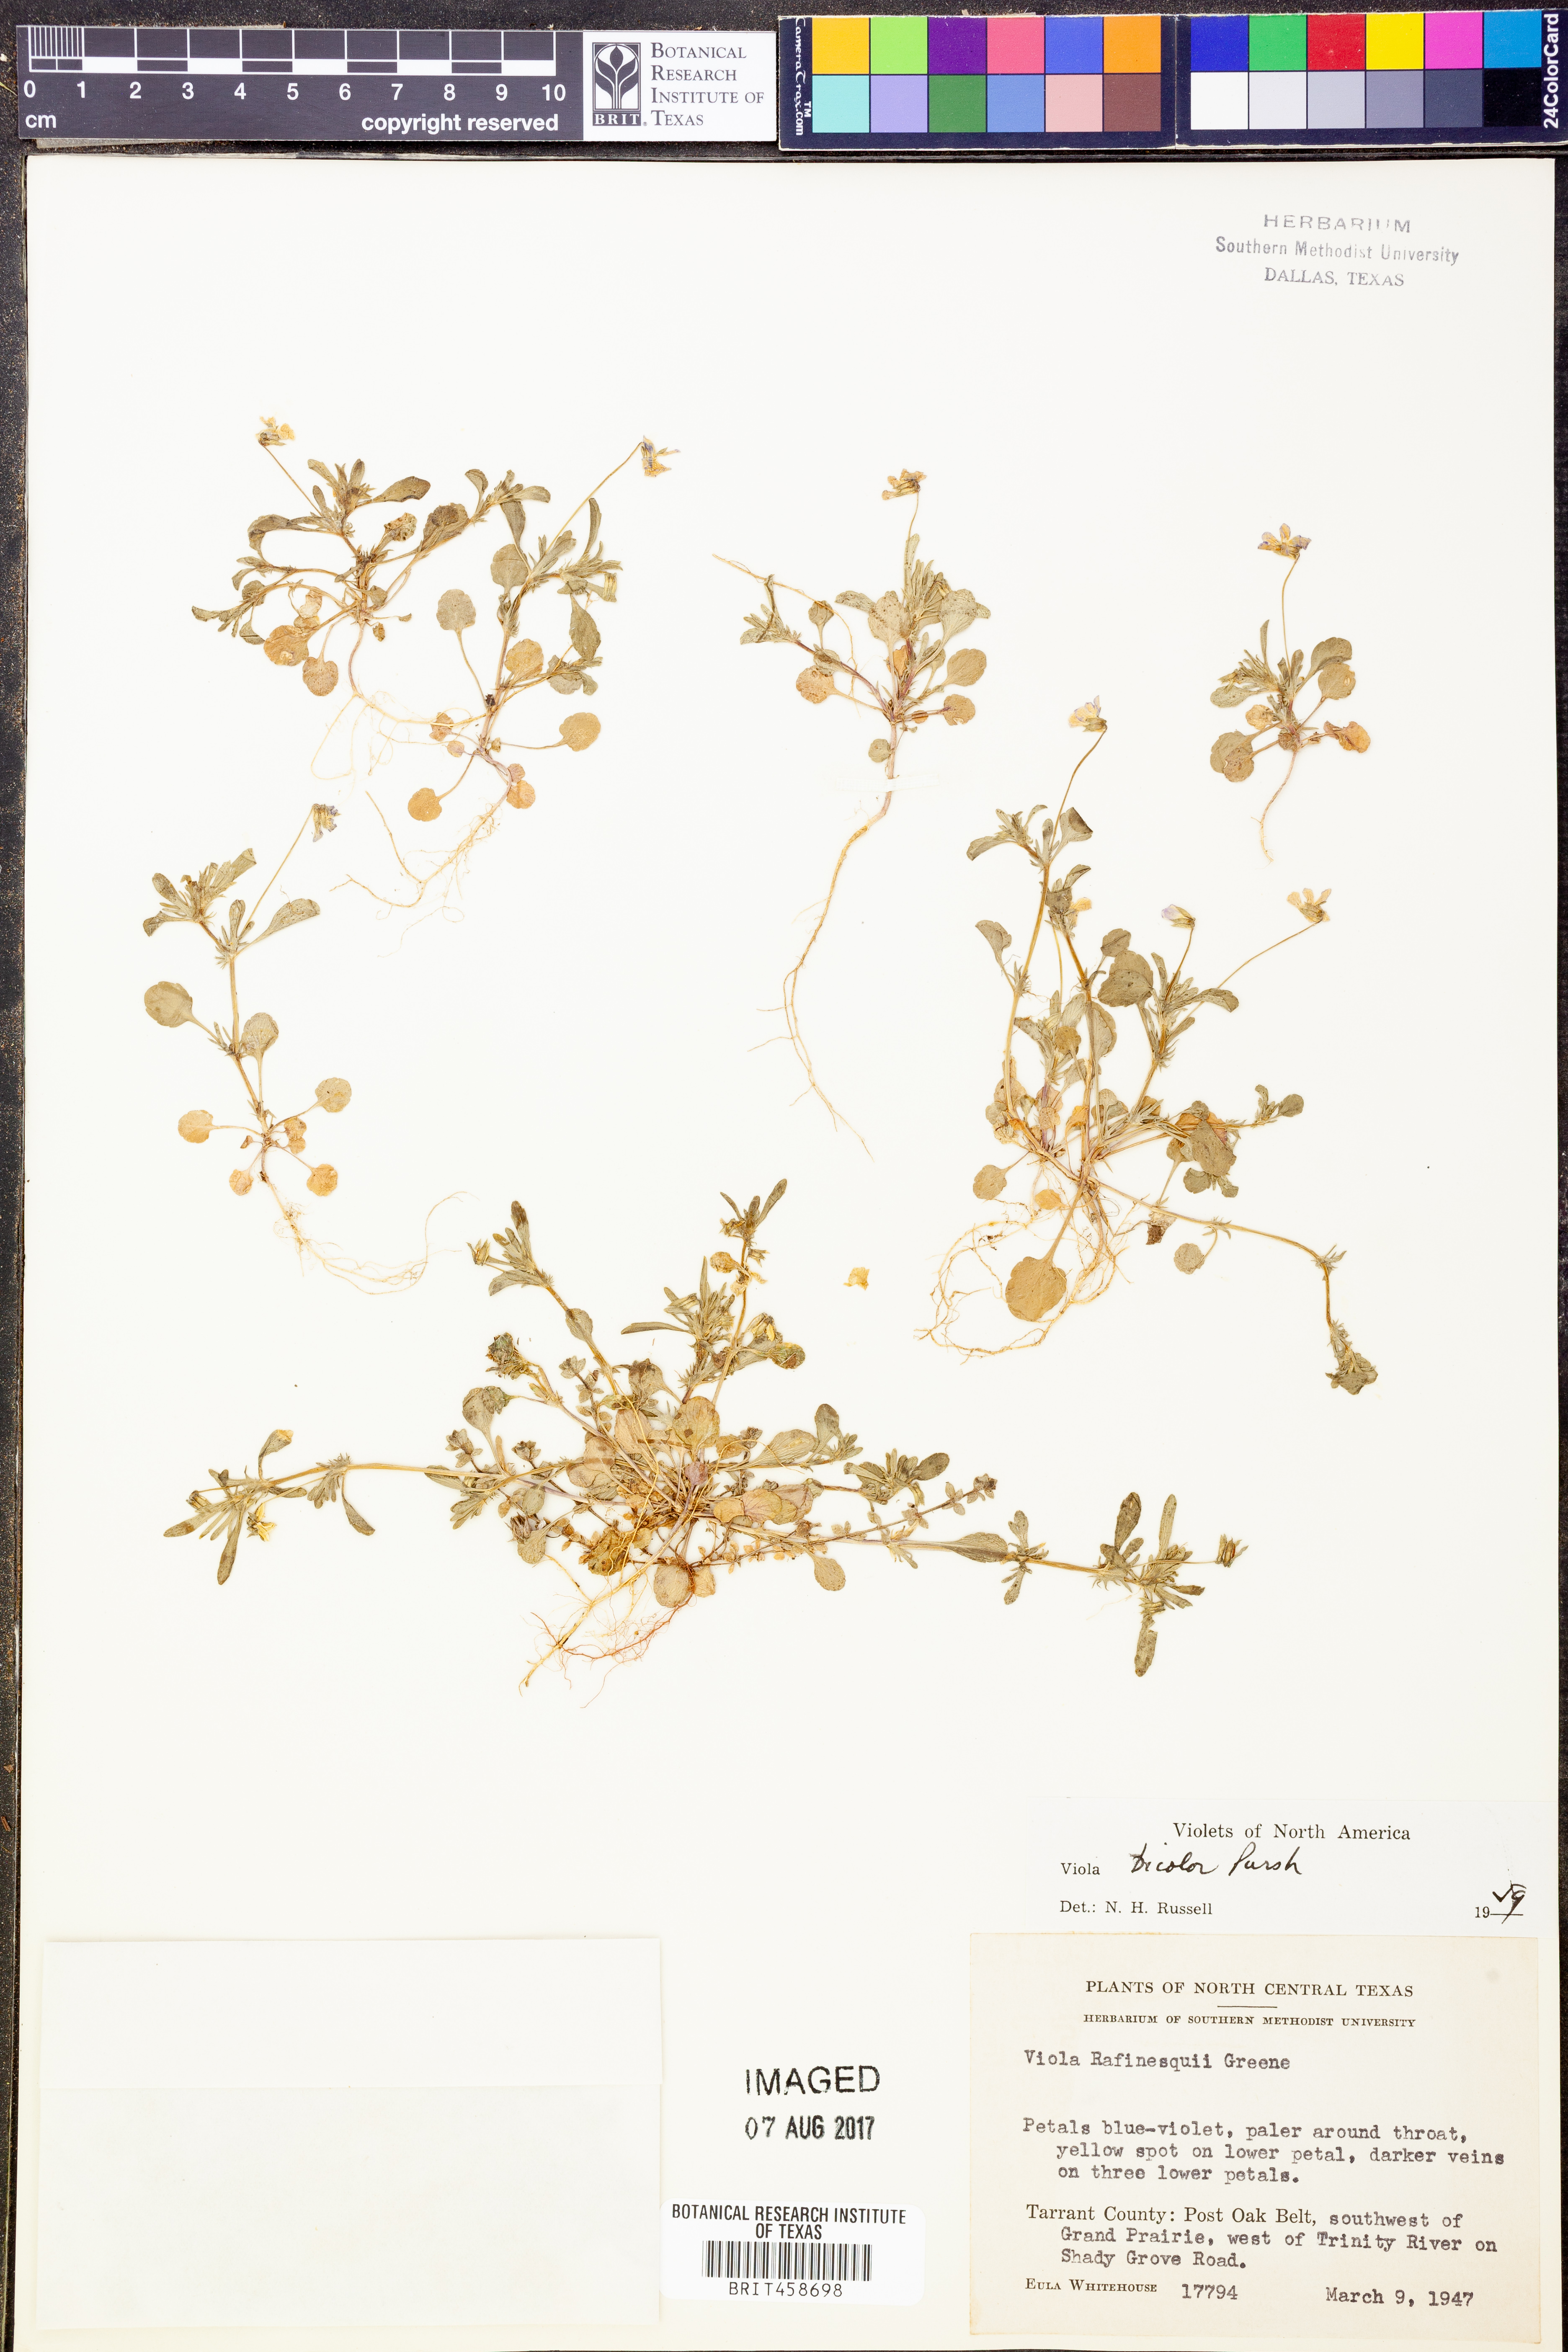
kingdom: Plantae
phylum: Tracheophyta
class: Magnoliopsida
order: Malpighiales
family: Violaceae
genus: Viola
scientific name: Viola rafinesquei
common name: American field pansy
